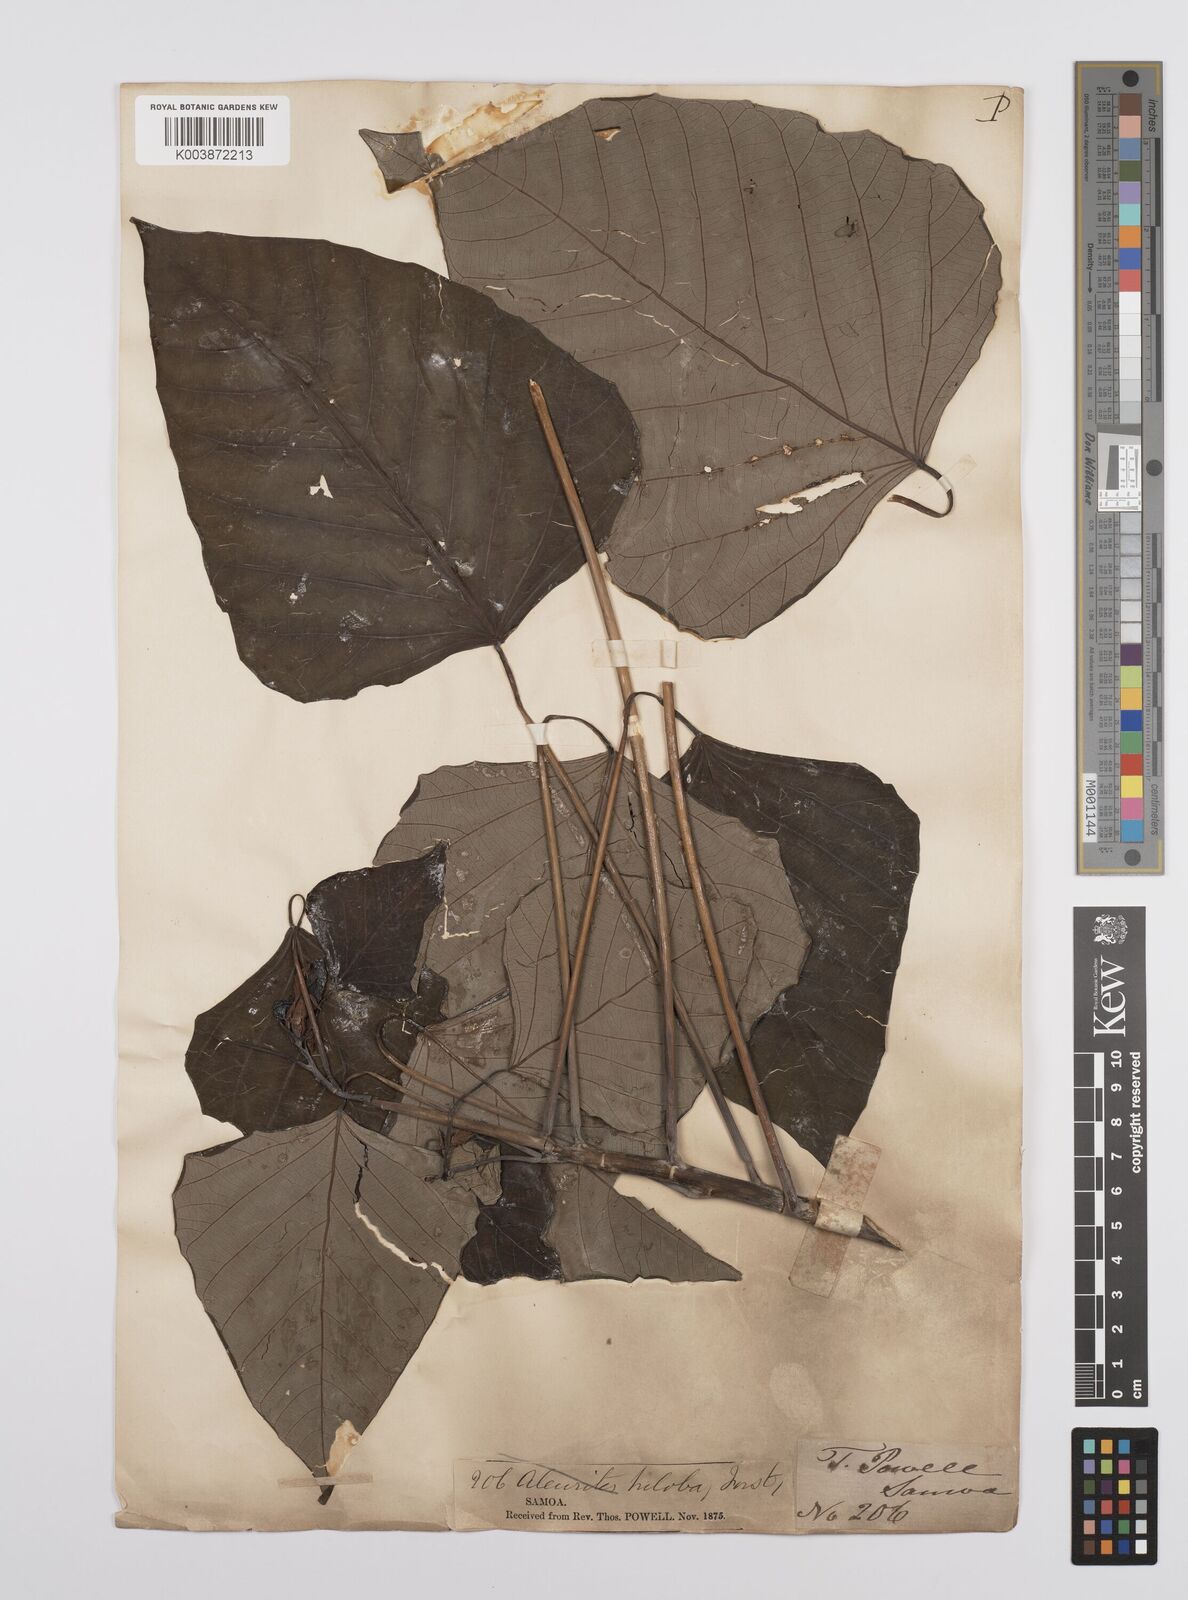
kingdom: Plantae
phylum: Tracheophyta
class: Magnoliopsida
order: Malpighiales
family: Euphorbiaceae
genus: Homalanthus
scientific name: Homalanthus acuminatus
